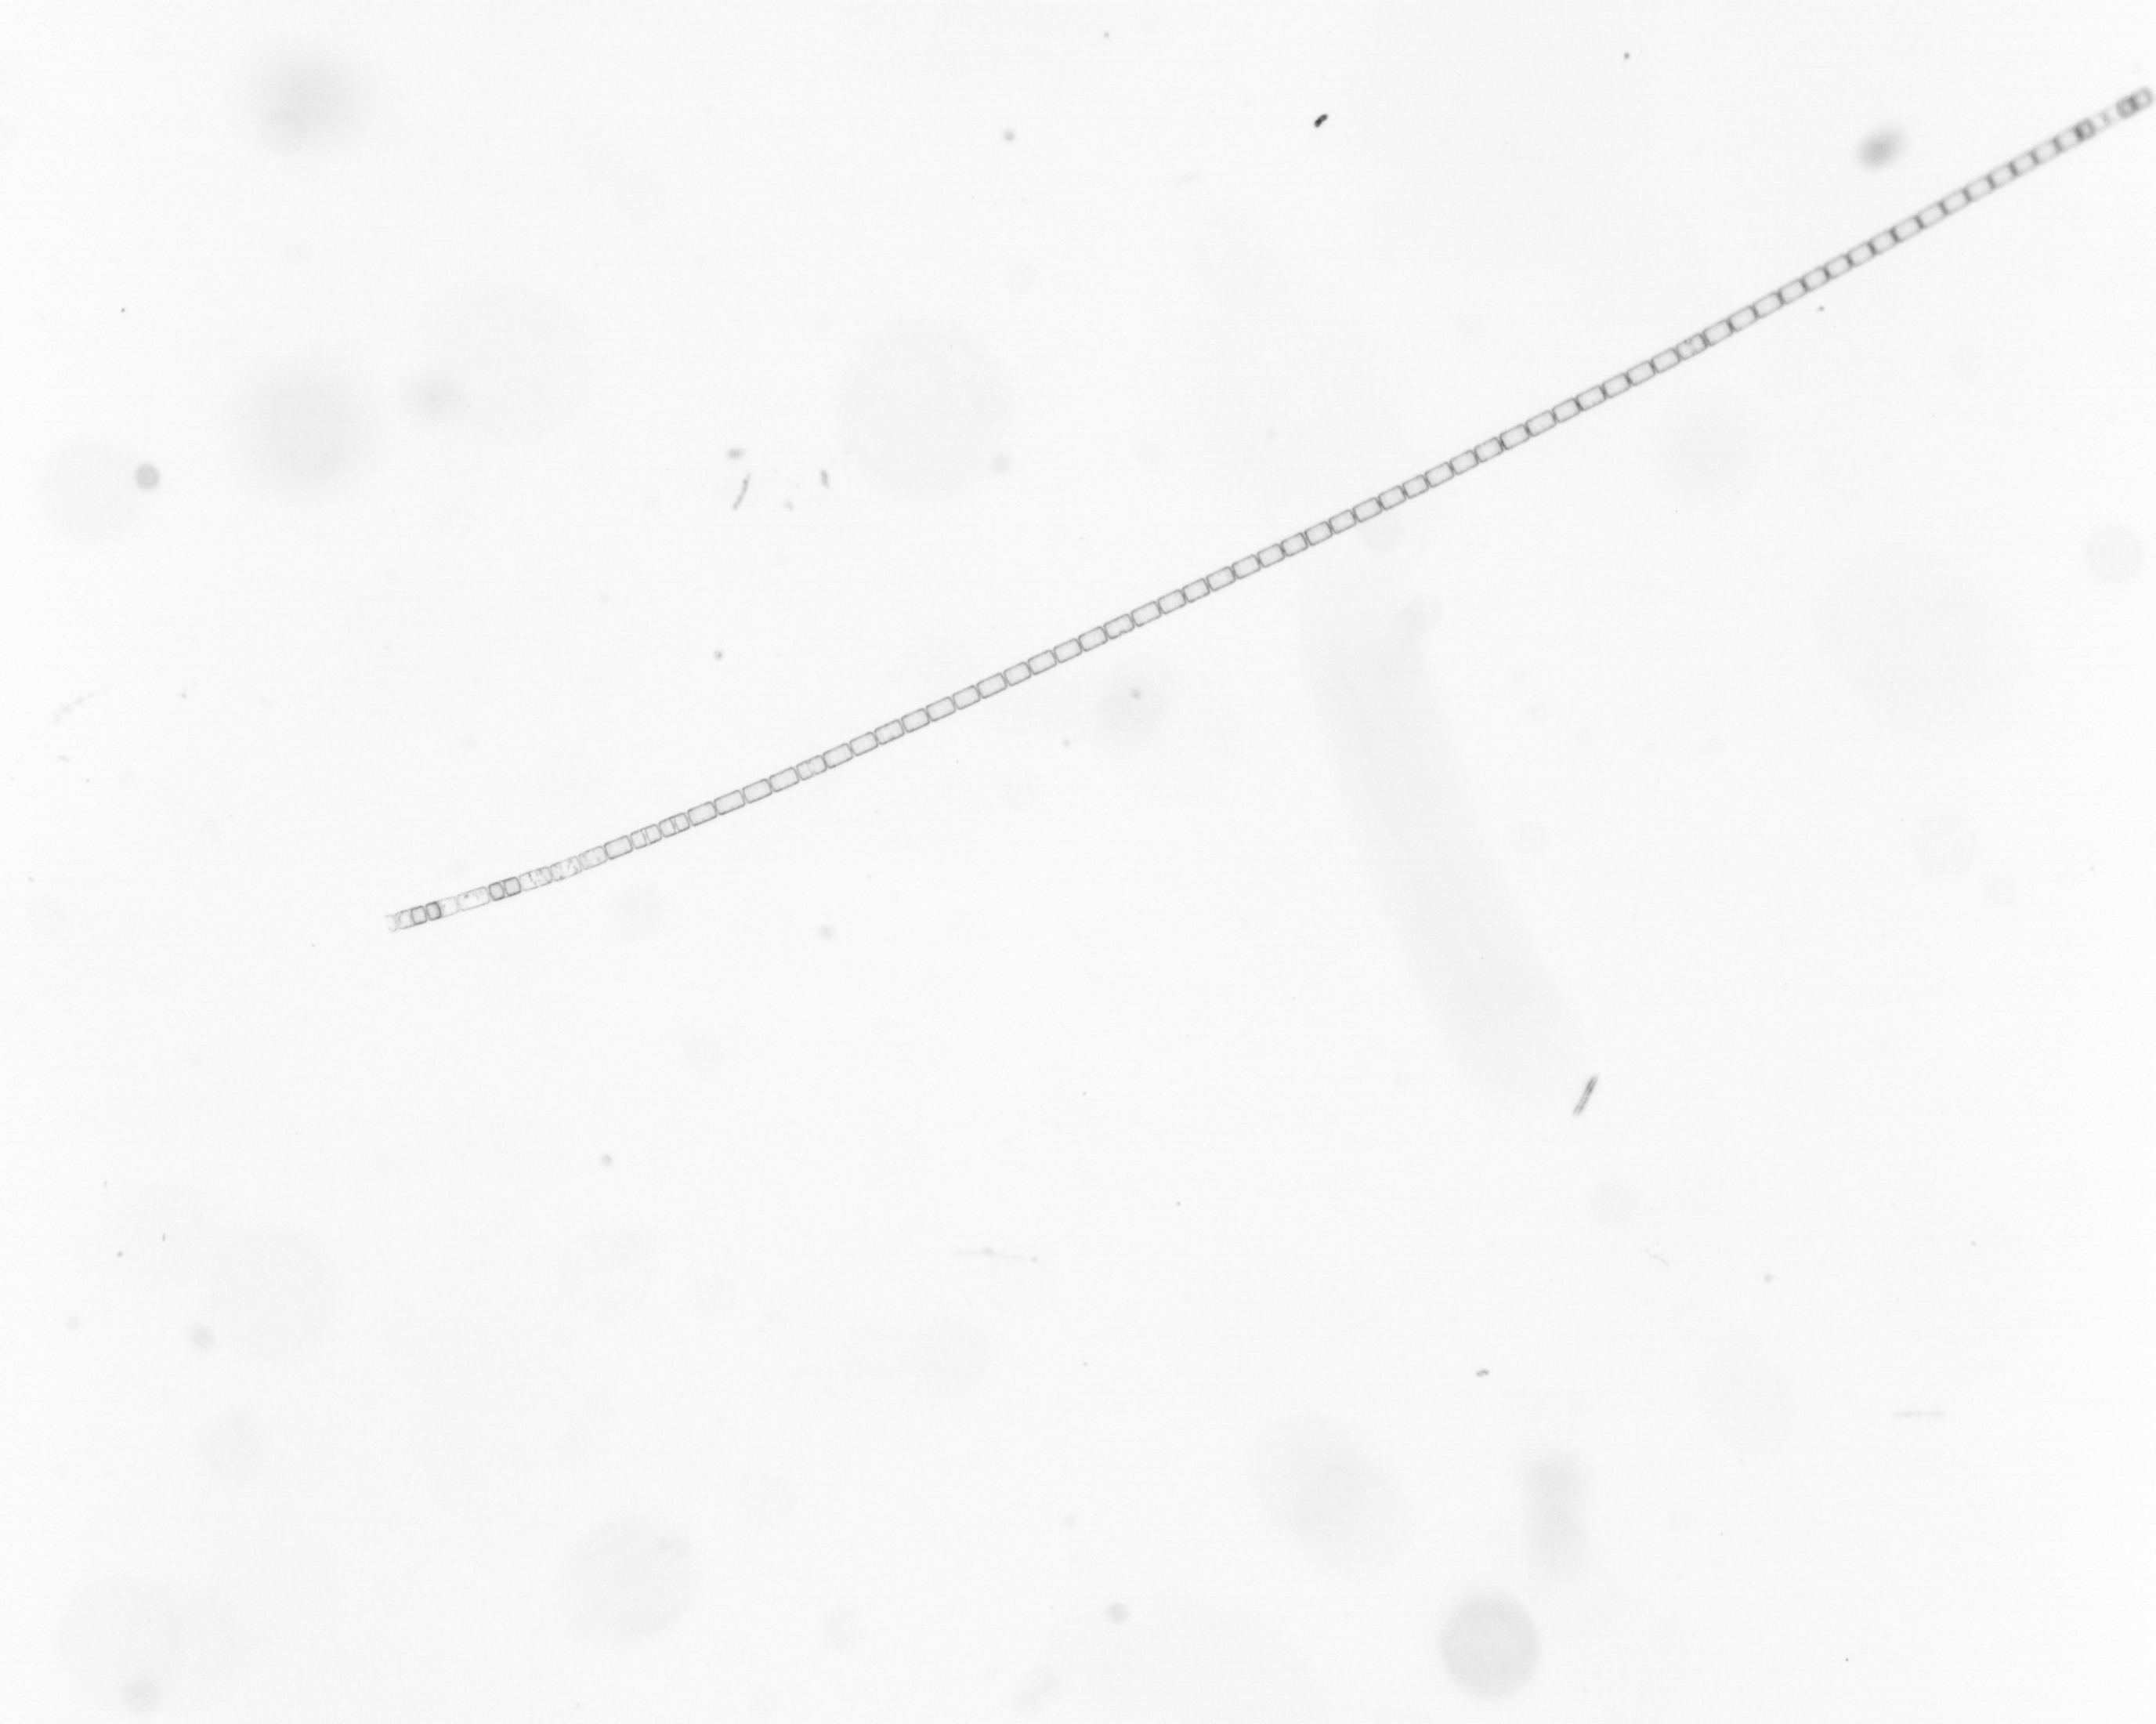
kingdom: Chromista
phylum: Ochrophyta
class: Bacillariophyceae
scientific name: Bacillariophyceae
